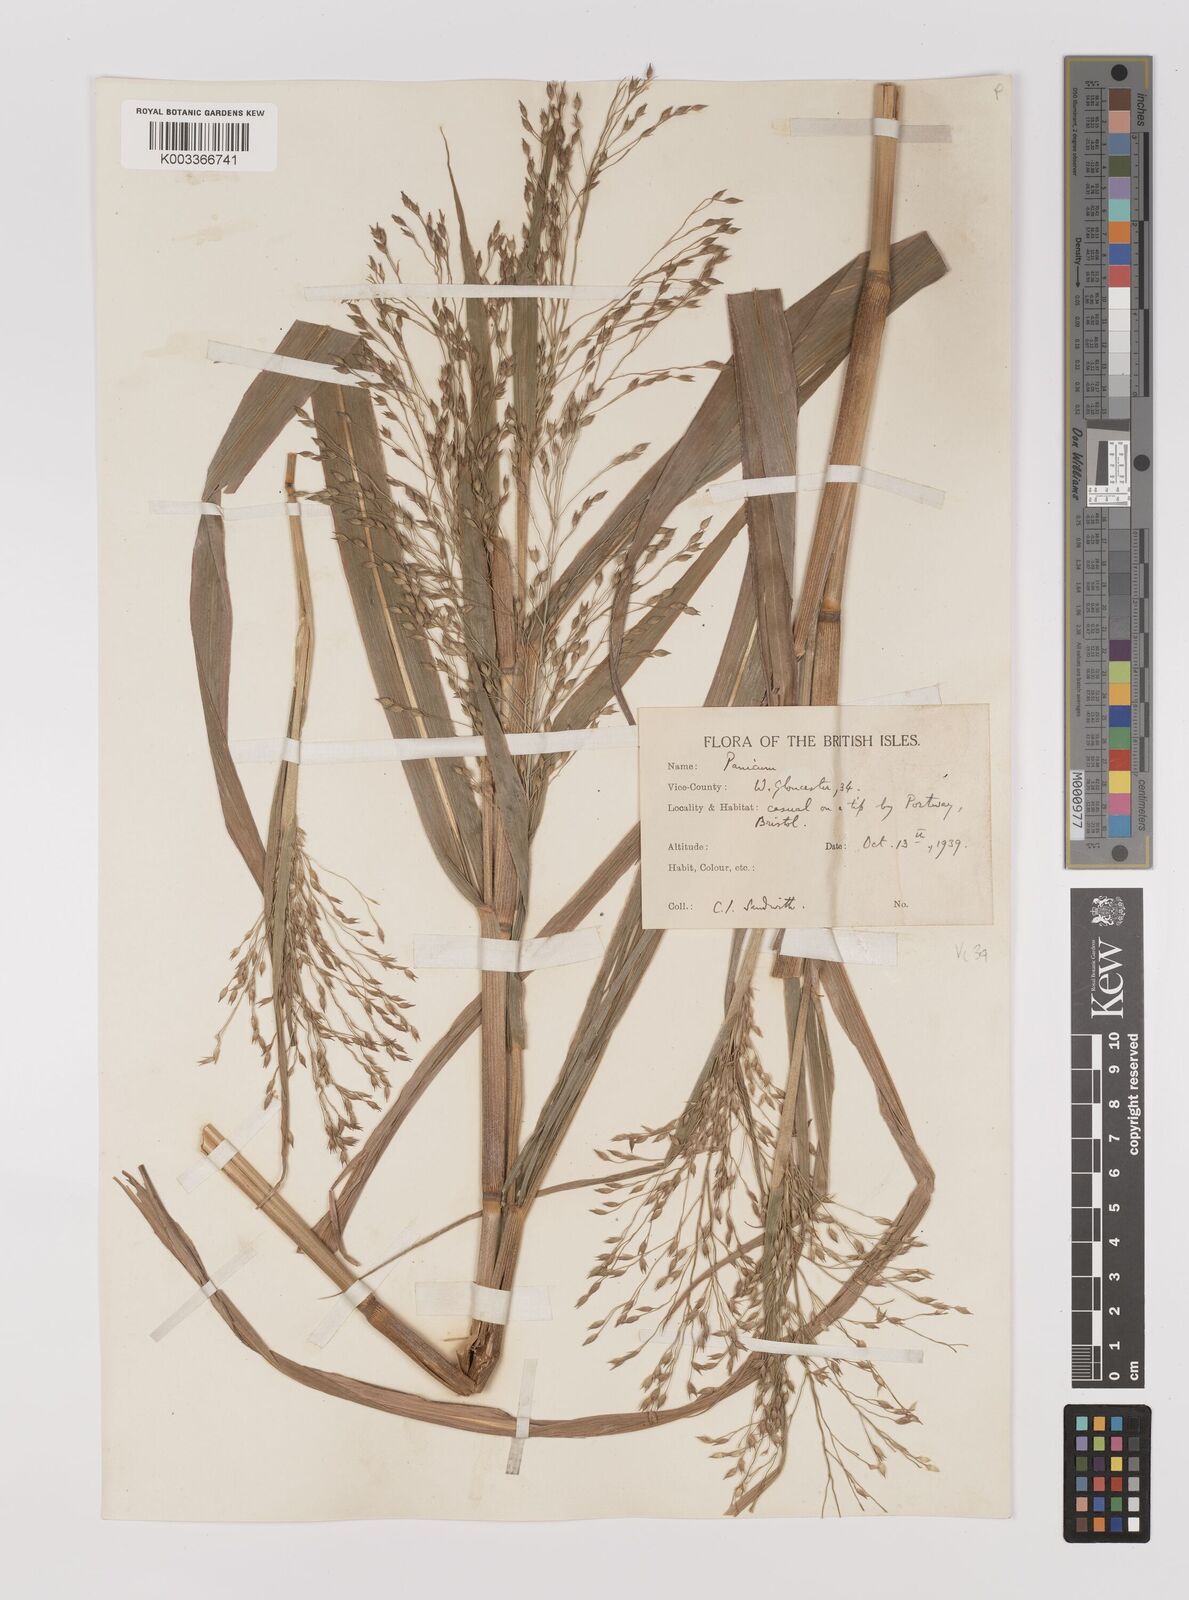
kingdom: Plantae
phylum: Tracheophyta
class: Liliopsida
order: Poales
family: Poaceae
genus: Panicum
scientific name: Panicum miliaceum
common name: Common millet
